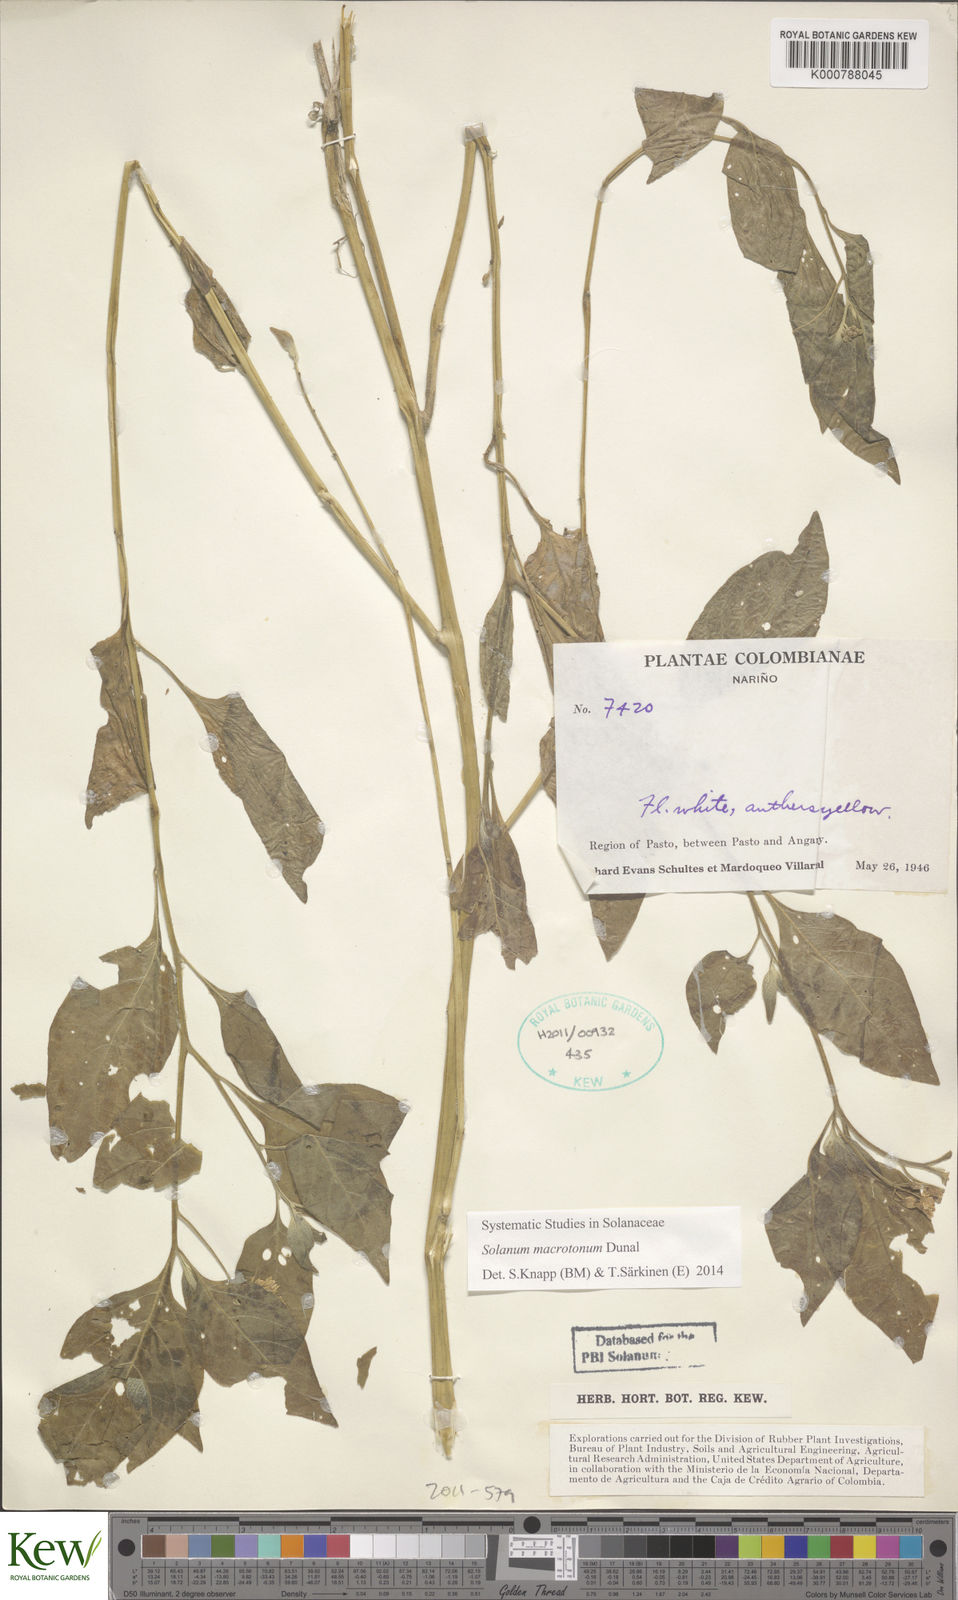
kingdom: Plantae
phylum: Tracheophyta
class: Magnoliopsida
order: Solanales
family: Solanaceae
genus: Solanum
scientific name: Solanum macrotonum
